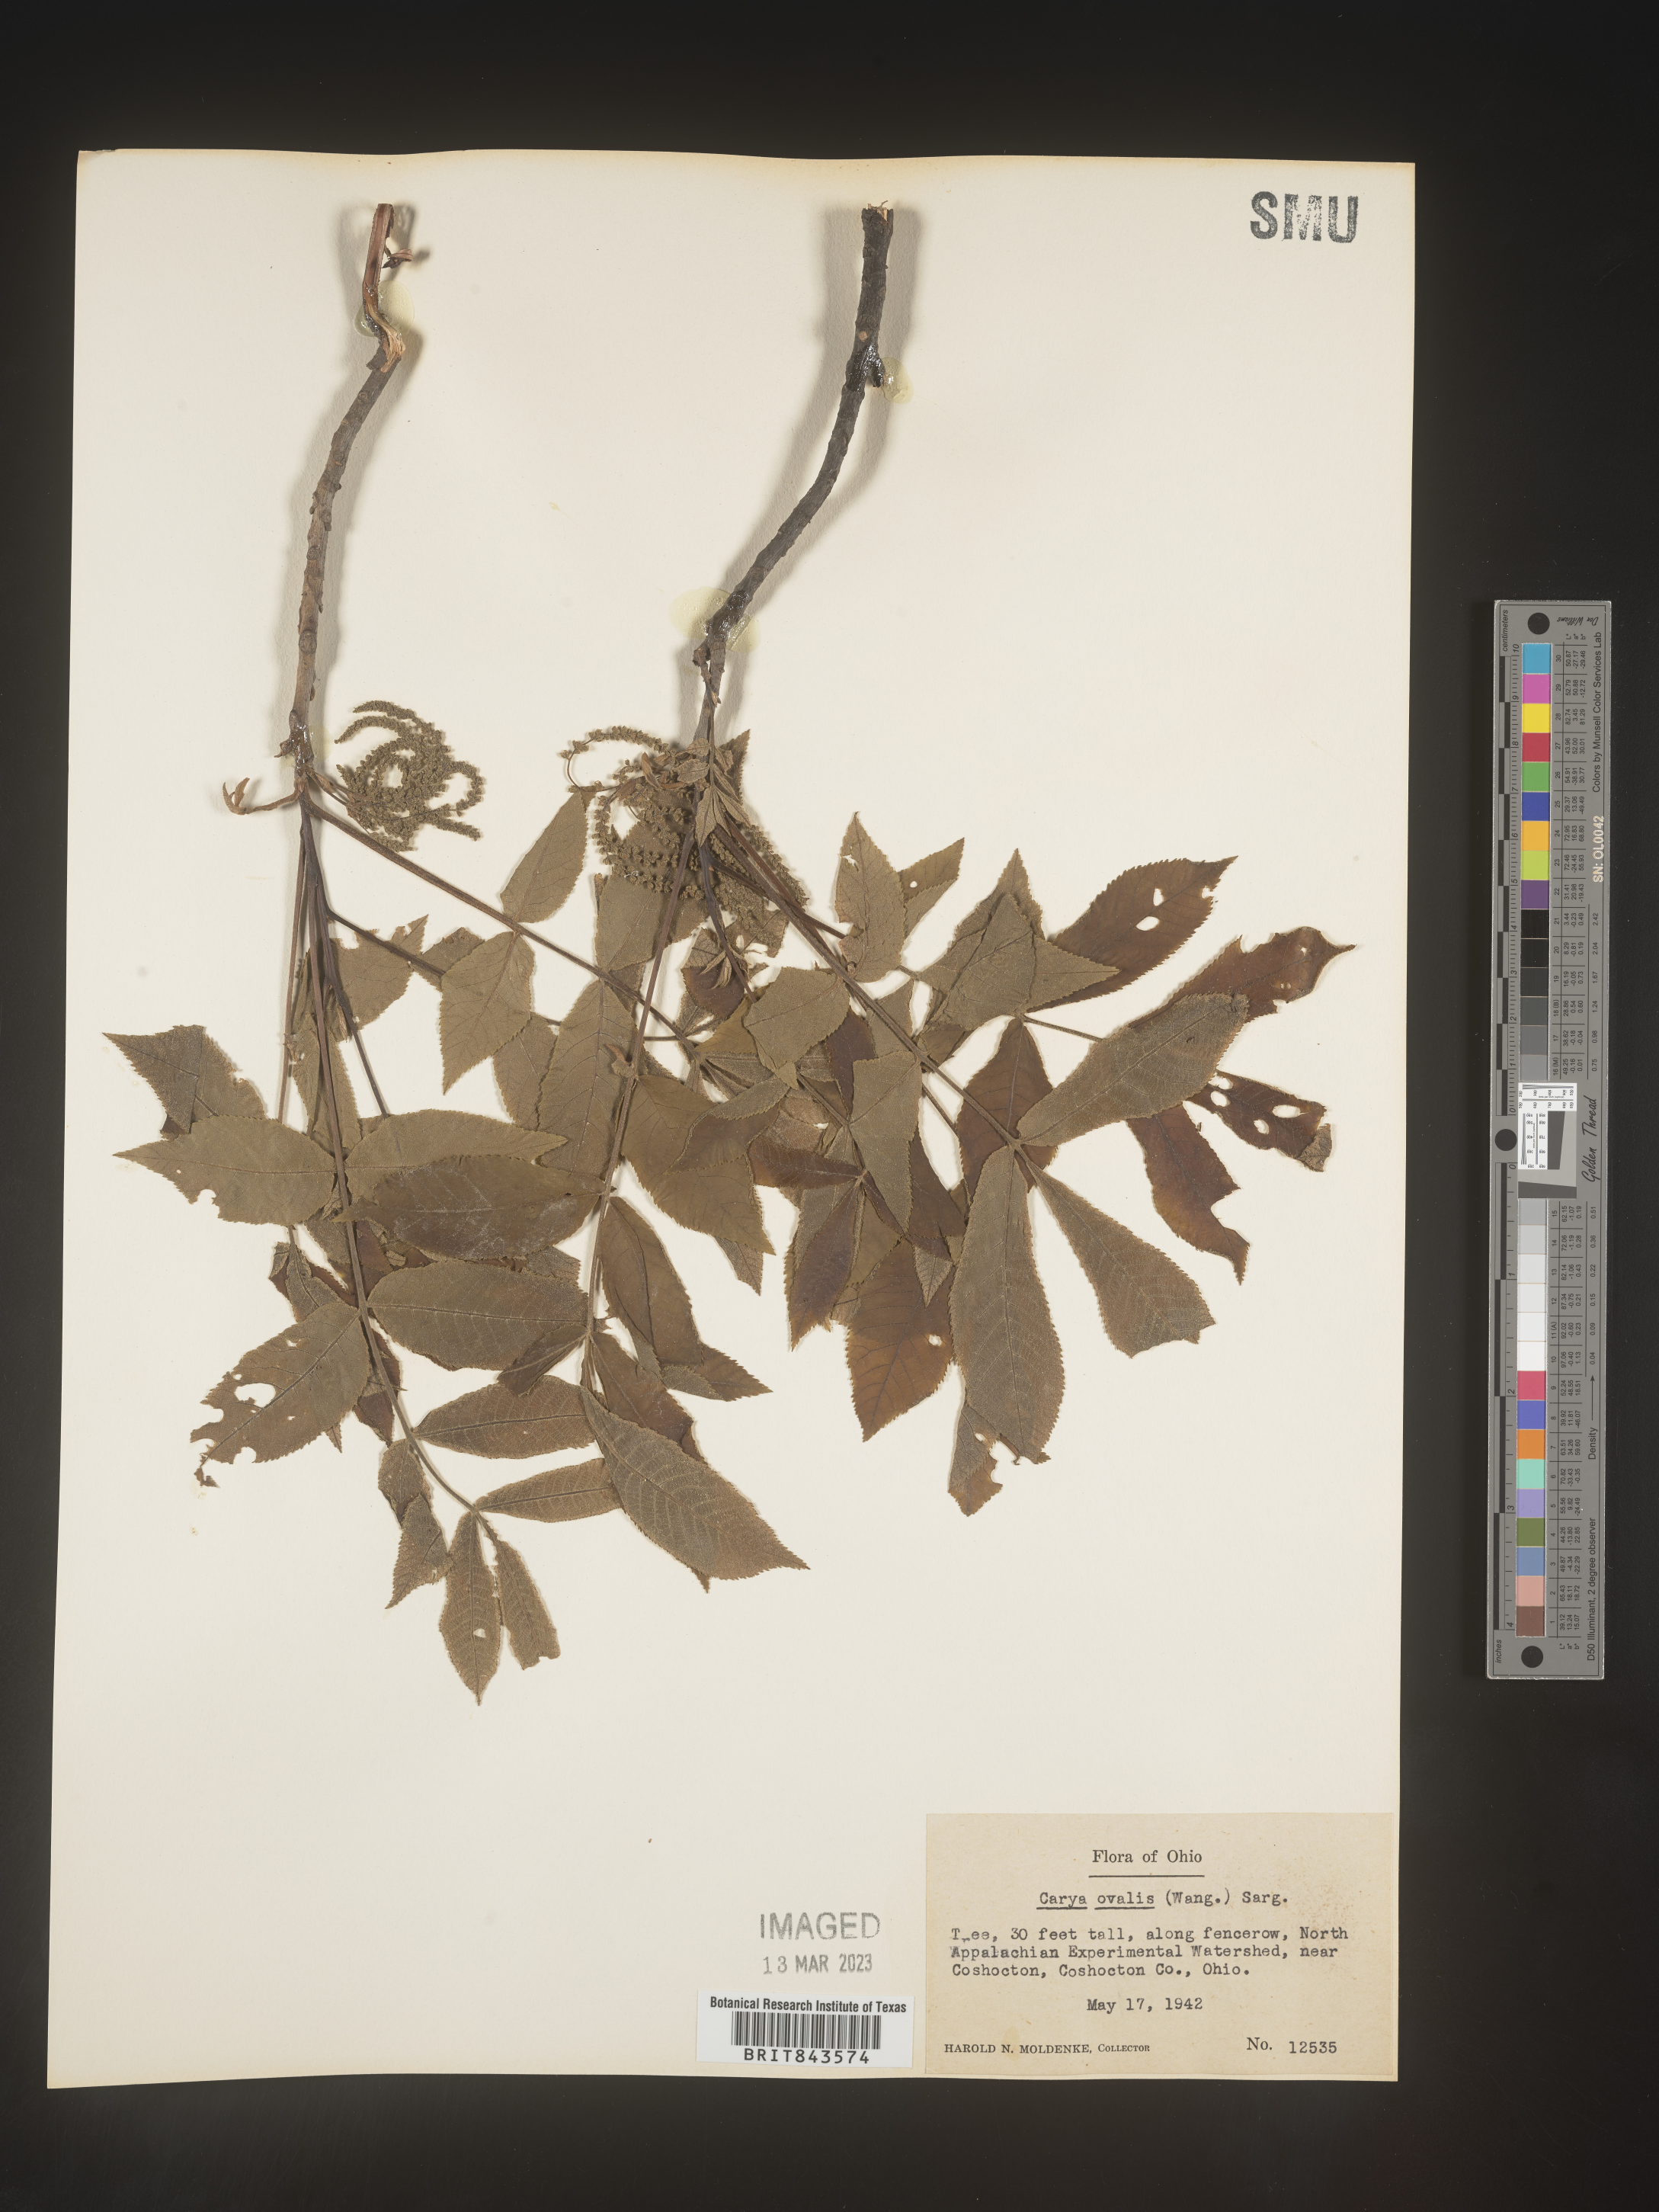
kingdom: Plantae
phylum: Tracheophyta
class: Magnoliopsida
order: Fagales
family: Juglandaceae
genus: Carya
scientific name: Carya ovalis
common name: False shagbark
